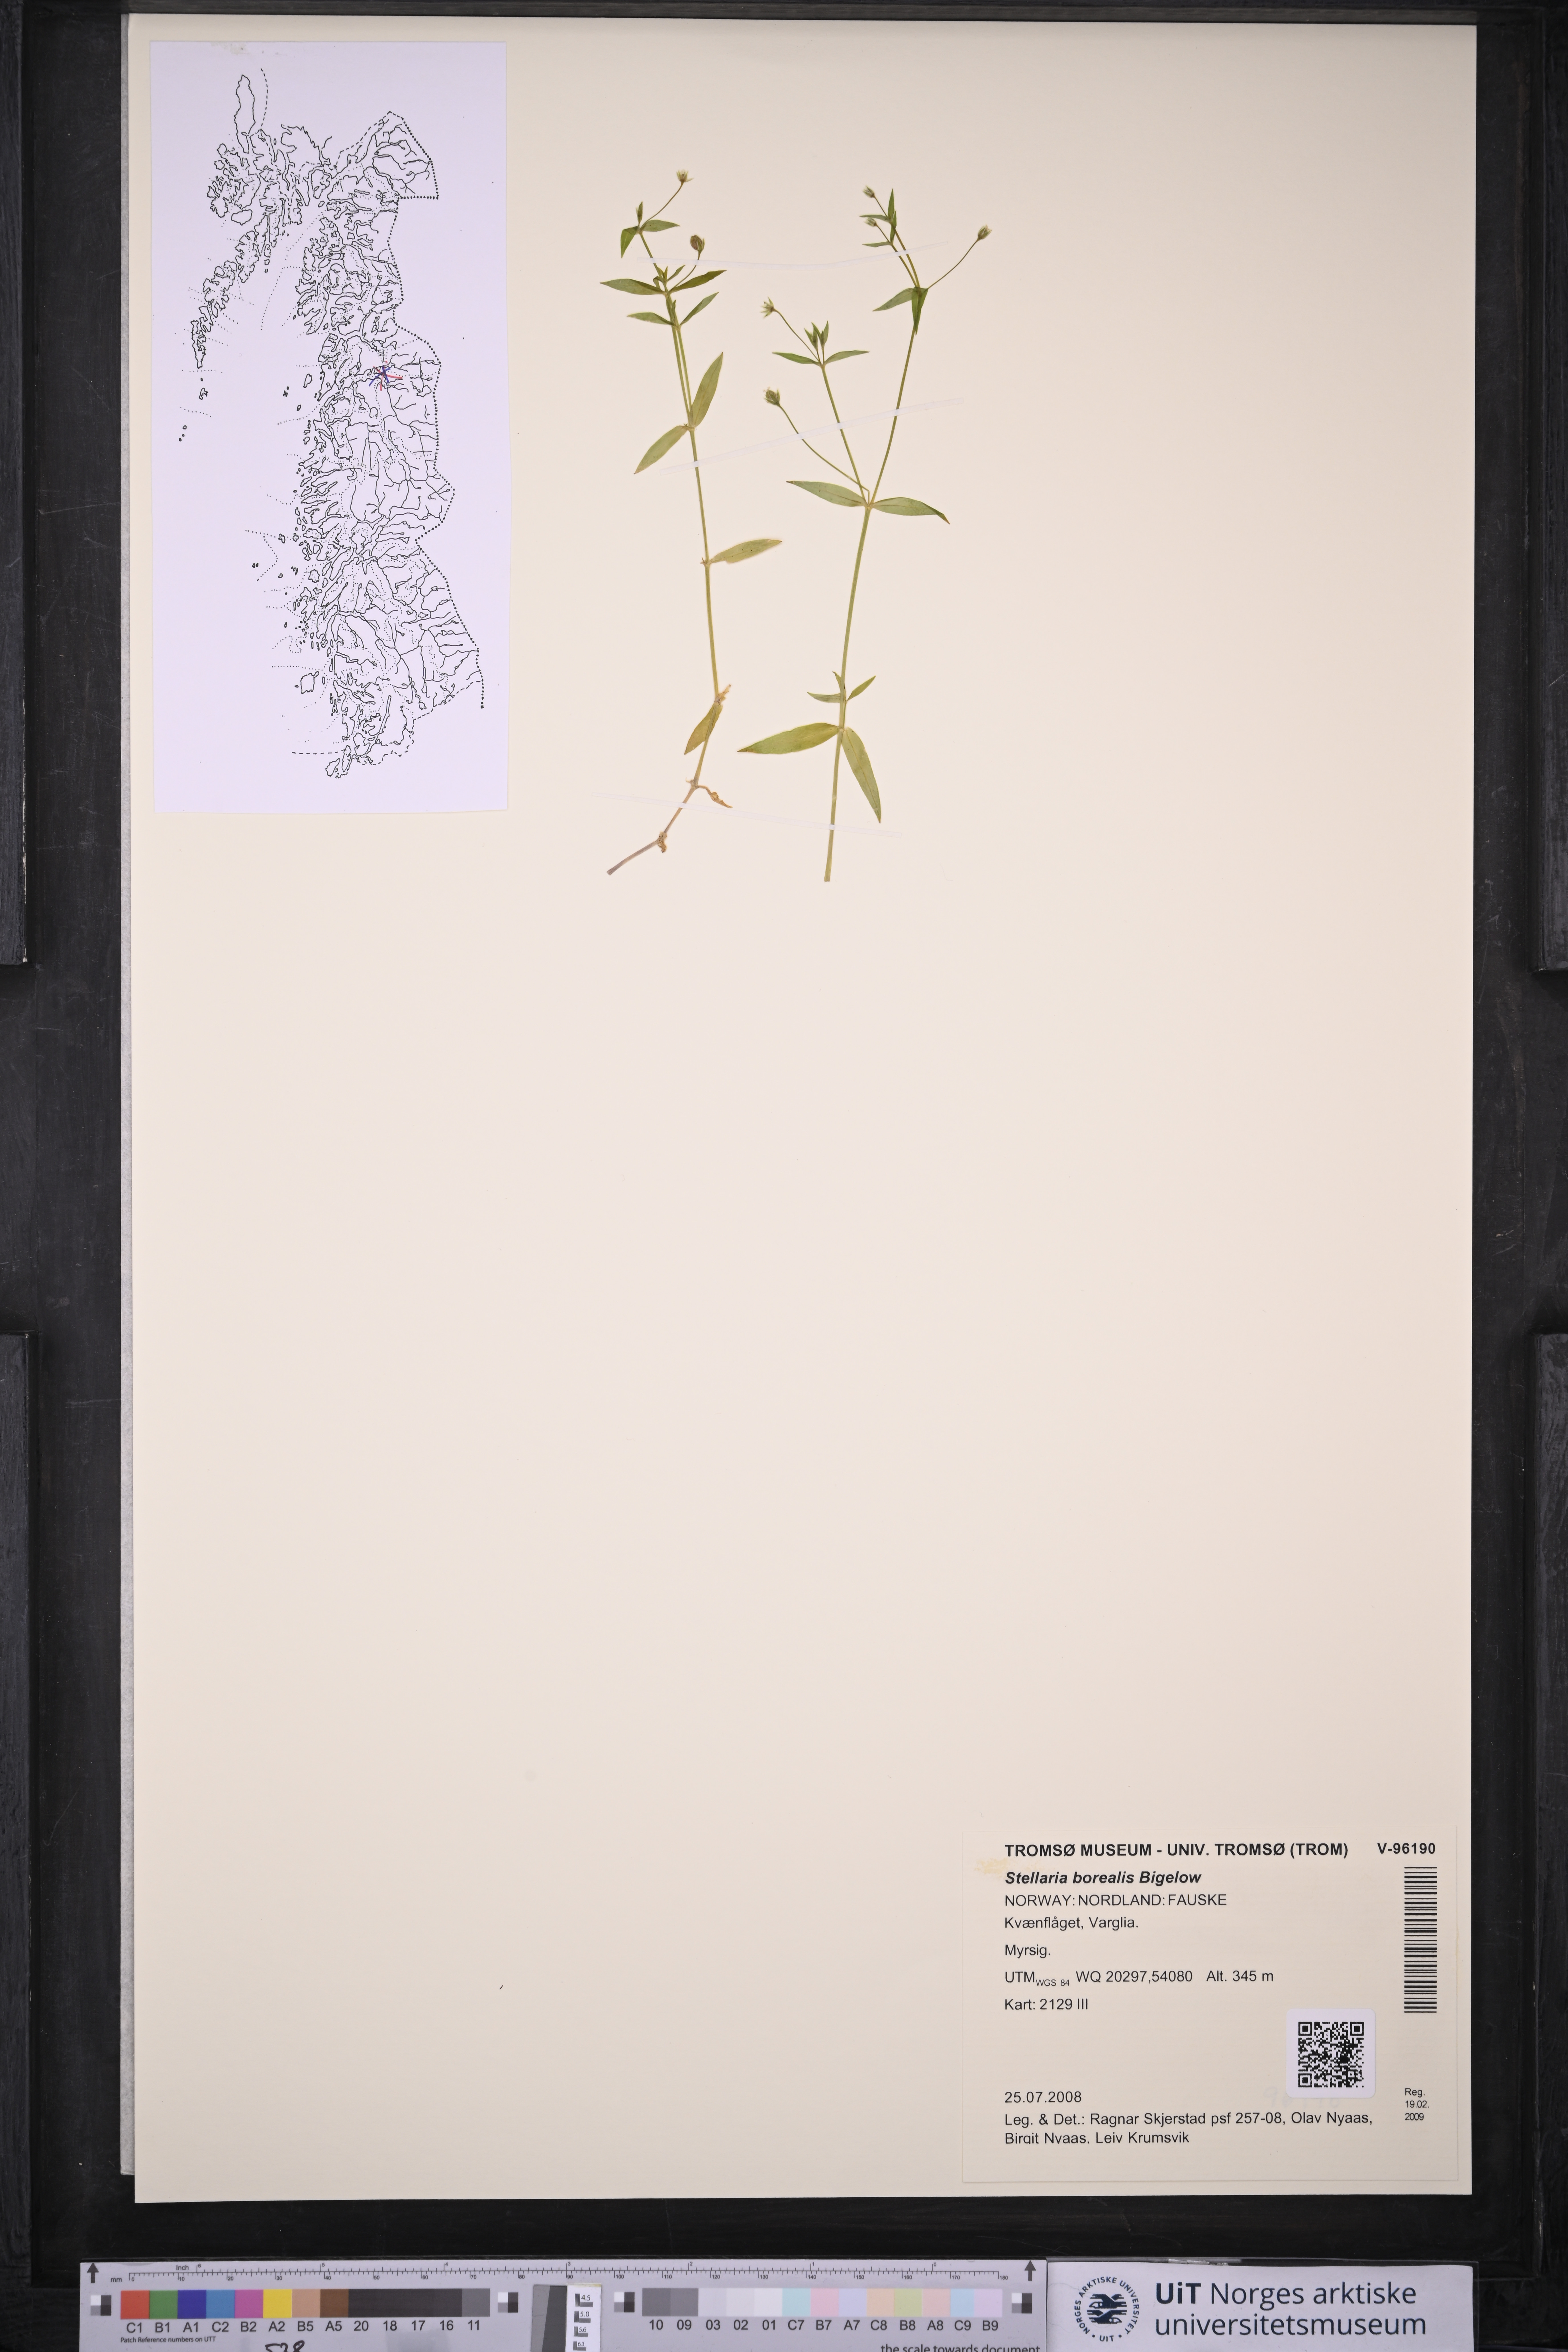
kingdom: Plantae
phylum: Tracheophyta
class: Magnoliopsida
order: Caryophyllales
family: Caryophyllaceae
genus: Stellaria
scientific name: Stellaria borealis
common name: Boreal starwort
